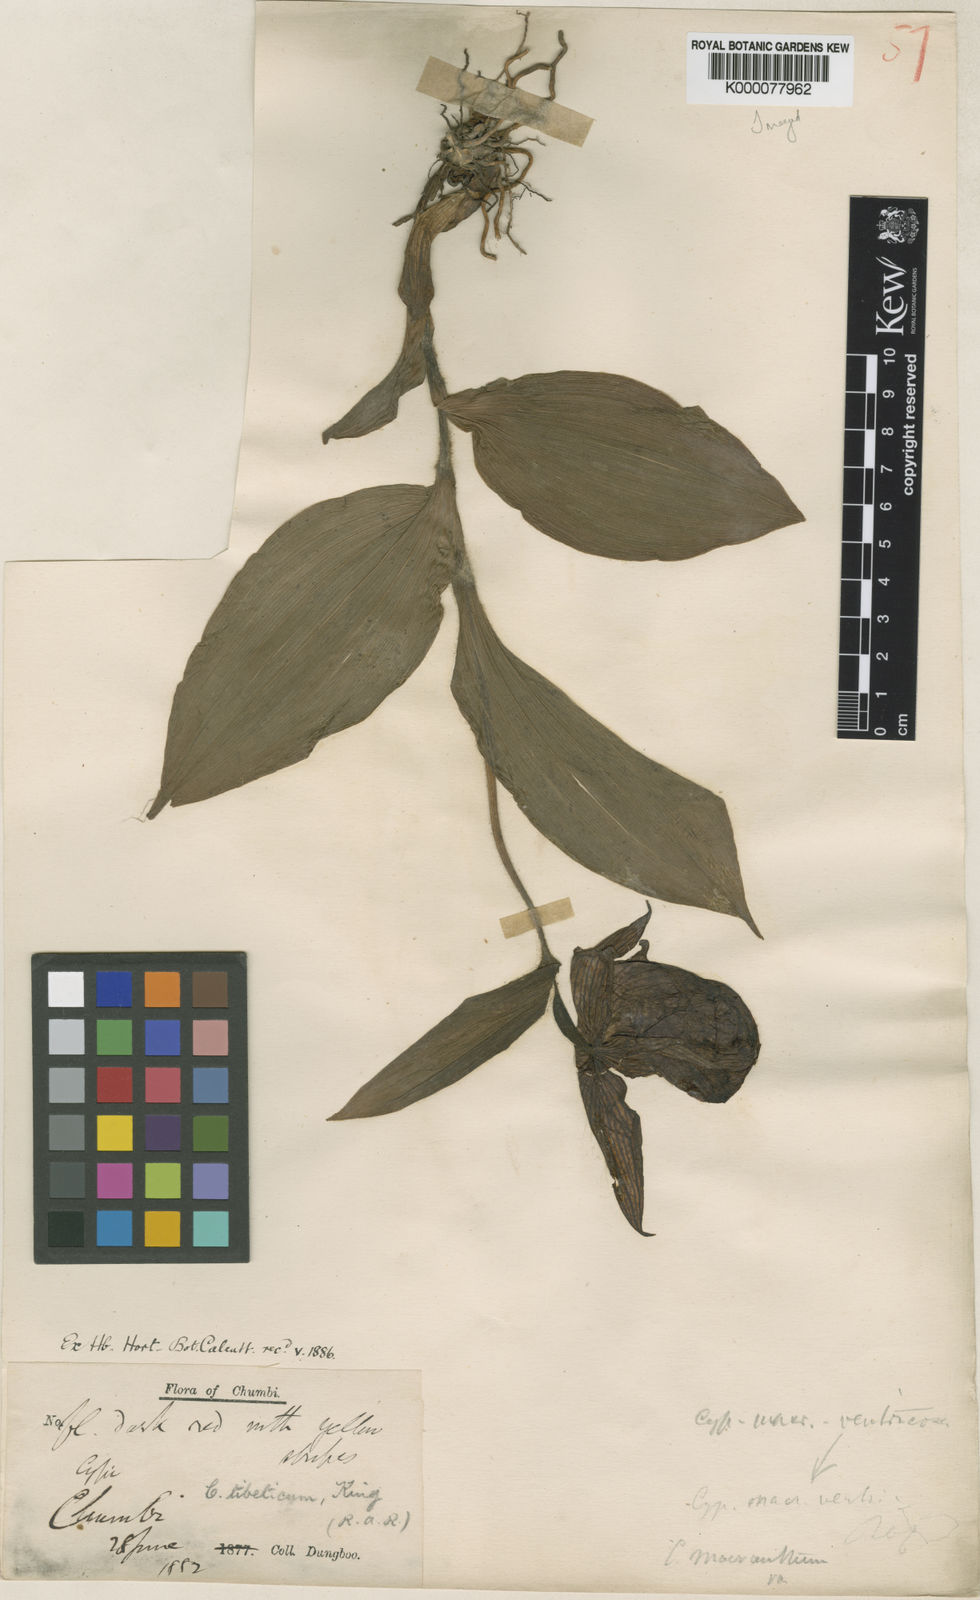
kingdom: Plantae
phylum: Tracheophyta
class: Liliopsida
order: Asparagales
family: Orchidaceae
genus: Cypripedium
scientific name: Cypripedium tibeticum
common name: Tibetan cypripedium
